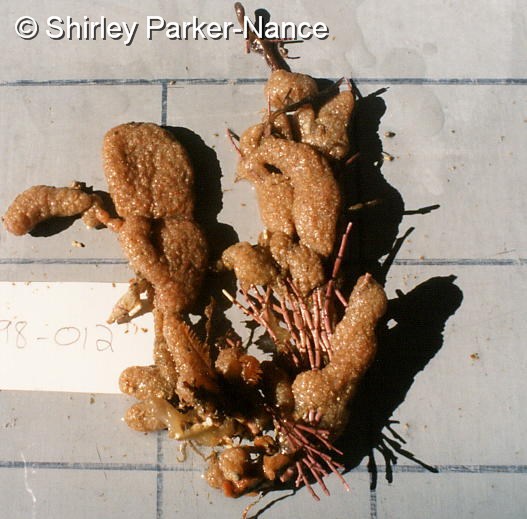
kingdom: Animalia
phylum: Chordata
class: Ascidiacea
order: Aplousobranchia
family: Polycitoridae
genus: Polycitor
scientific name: Polycitor porrecta
